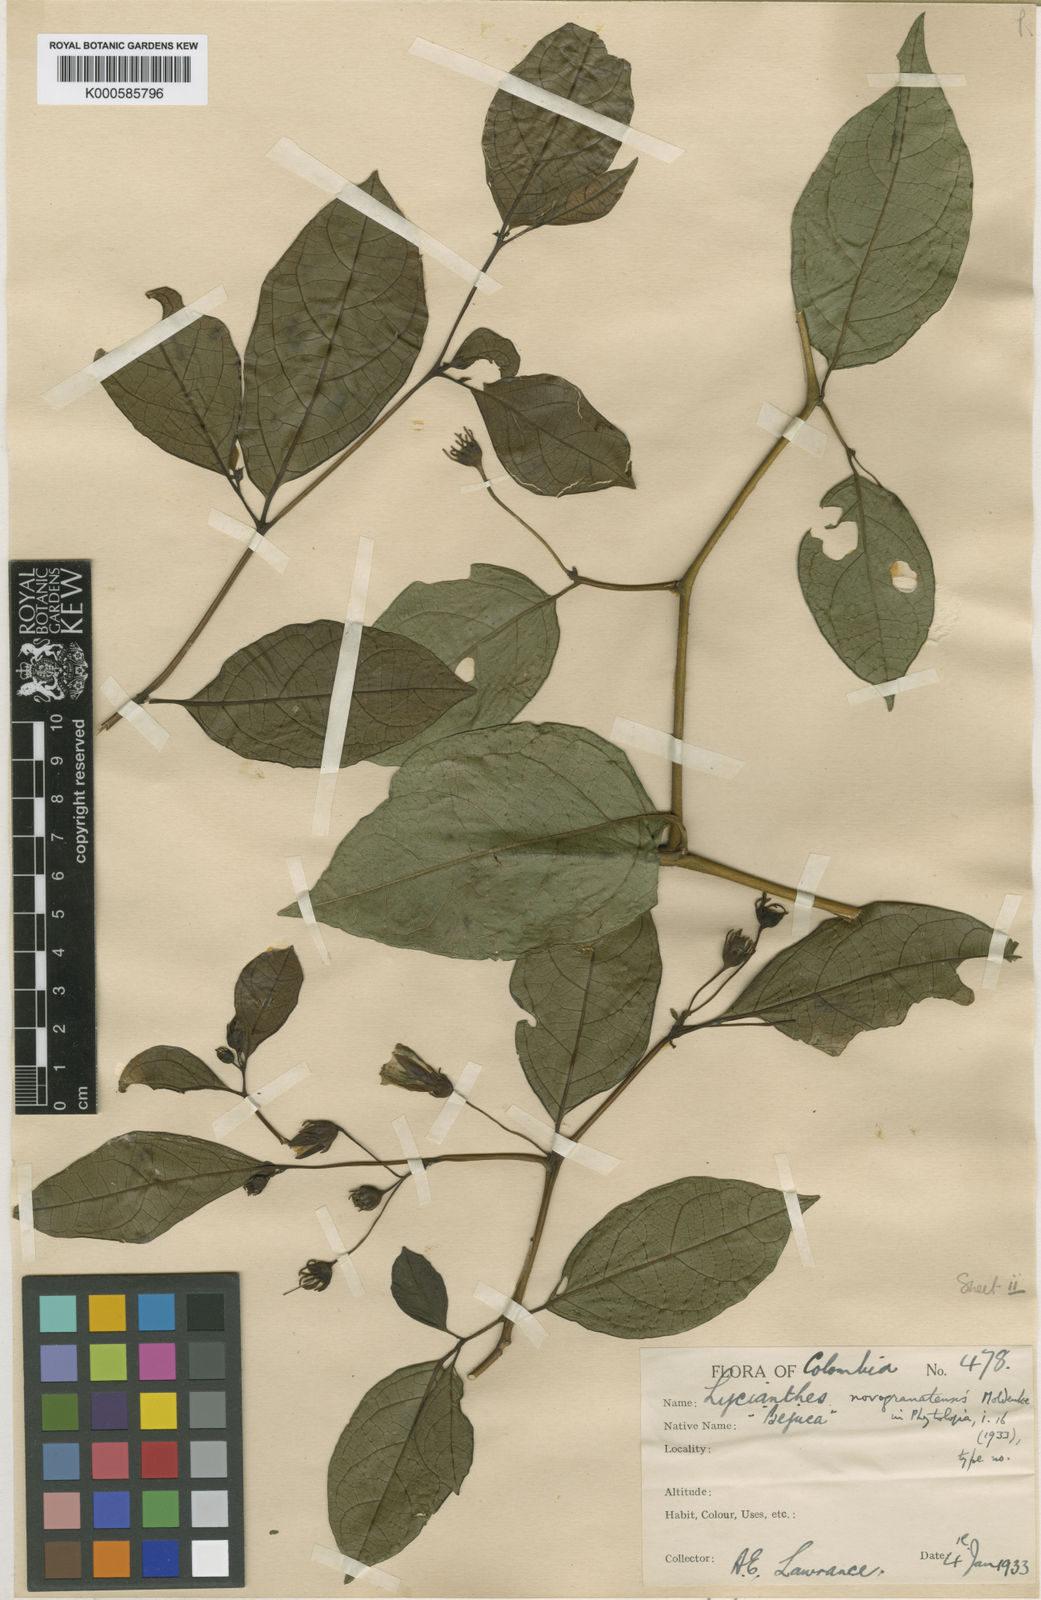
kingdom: Plantae
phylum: Tracheophyta
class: Magnoliopsida
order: Solanales
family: Solanaceae
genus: Lycianthes
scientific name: Lycianthes novogranatensis
